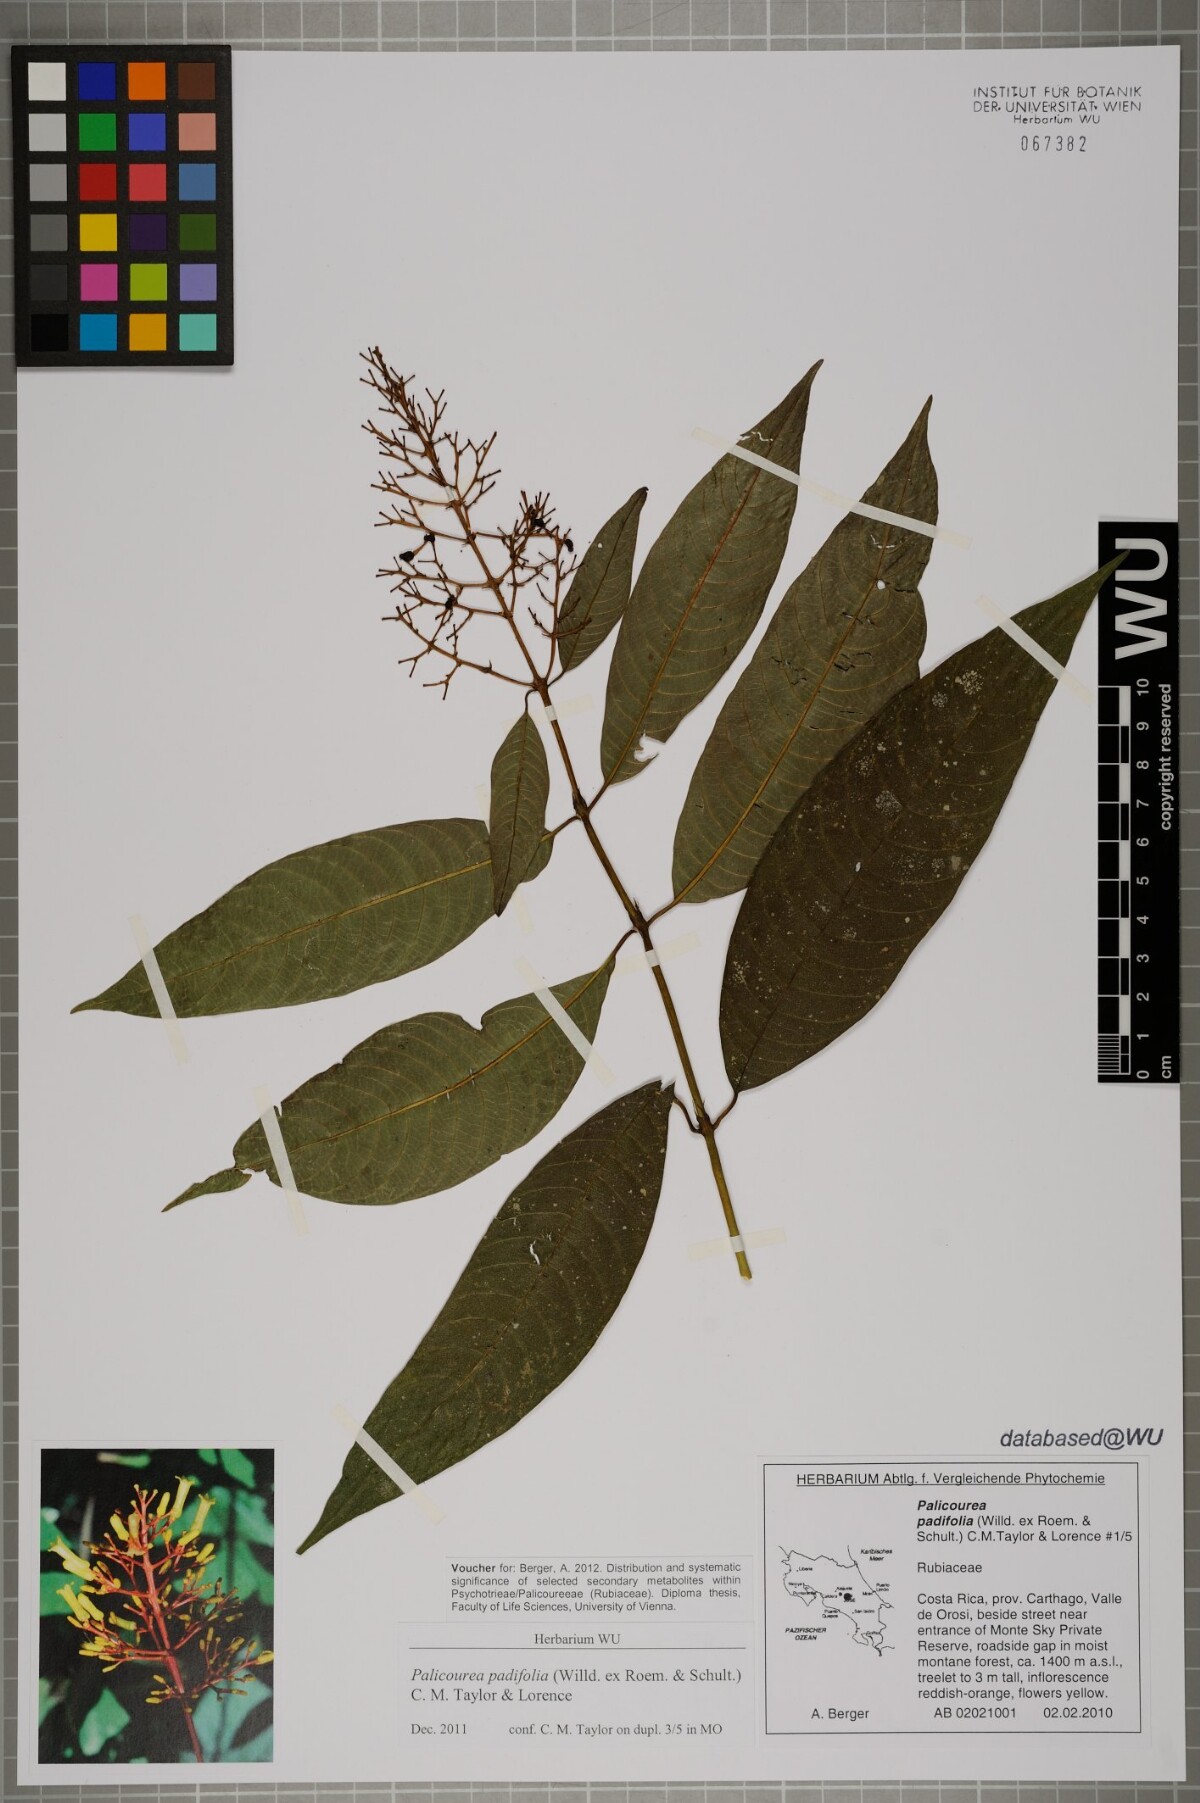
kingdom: Plantae
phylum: Tracheophyta
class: Magnoliopsida
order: Gentianales
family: Rubiaceae
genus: Palicourea
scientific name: Palicourea padifolia
